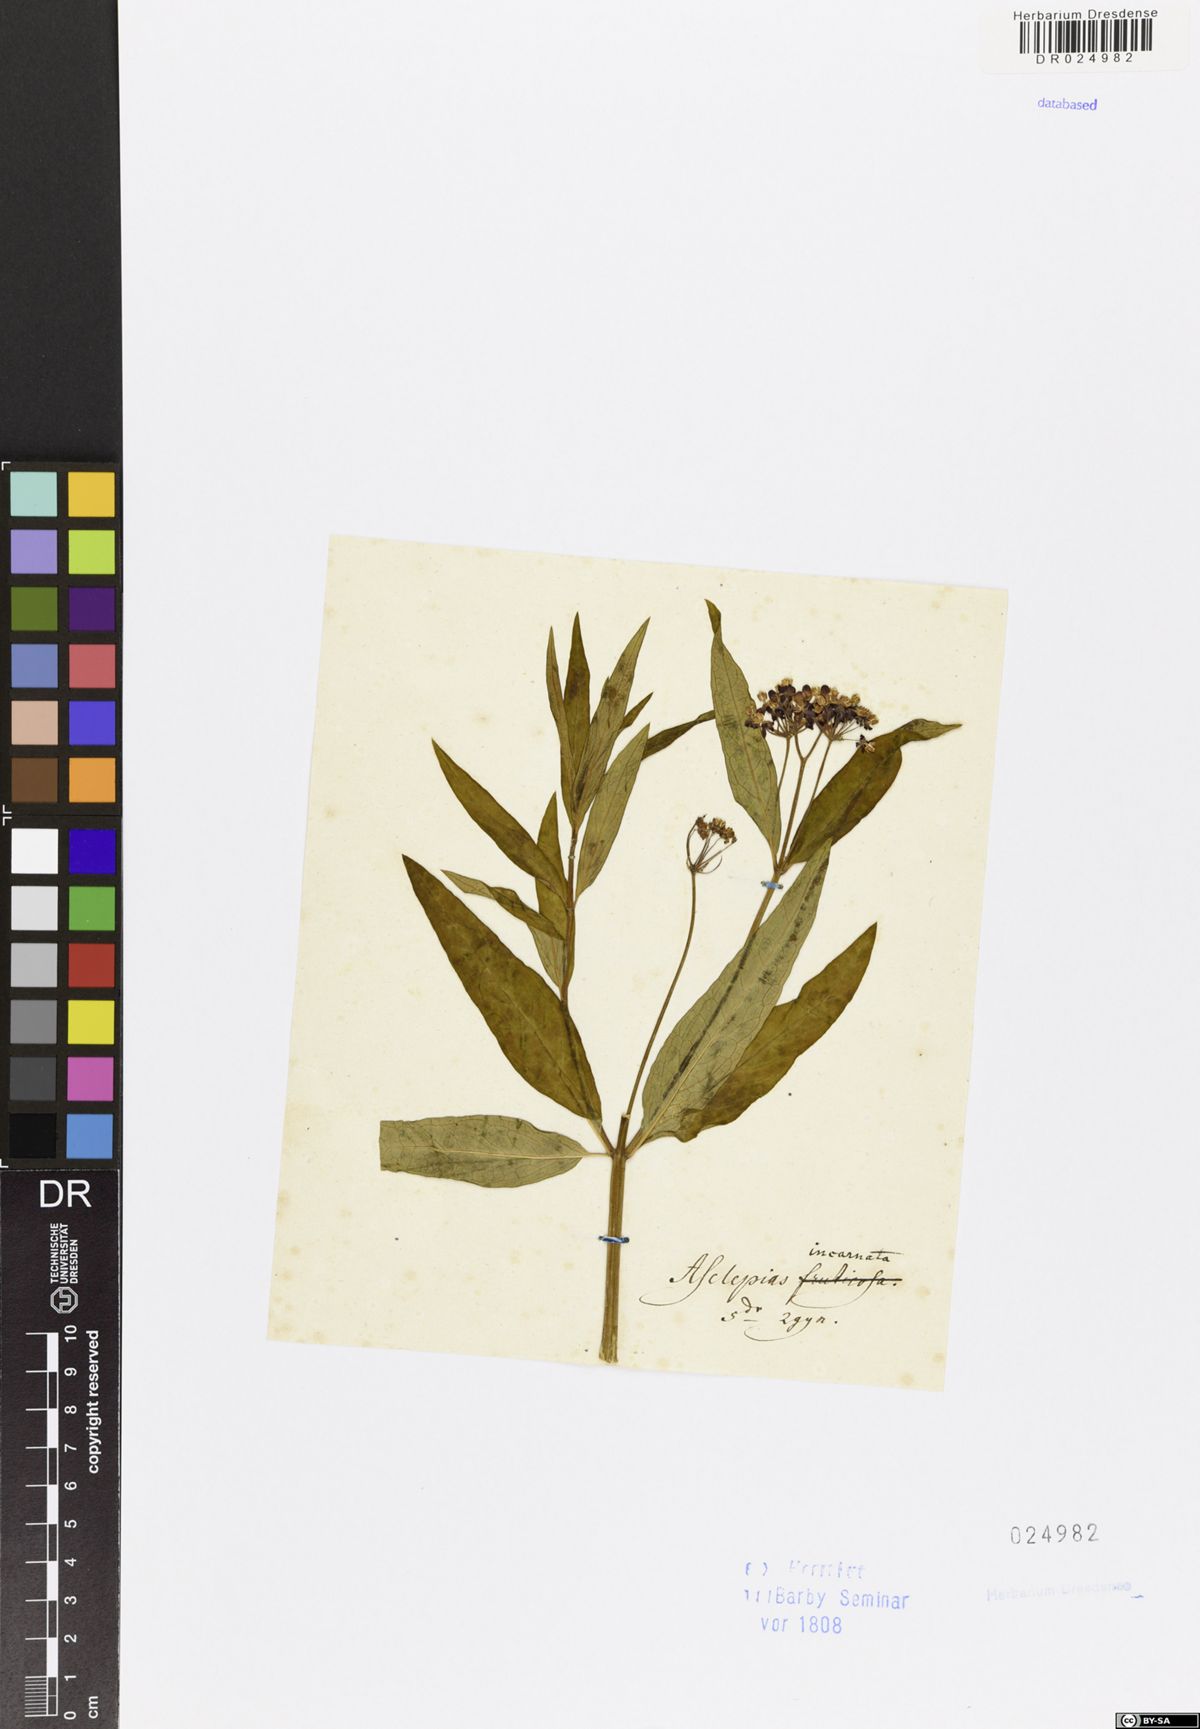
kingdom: Plantae
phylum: Tracheophyta
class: Magnoliopsida
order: Gentianales
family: Apocynaceae
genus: Asclepias
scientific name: Asclepias incarnata
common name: Swamp milkweed
